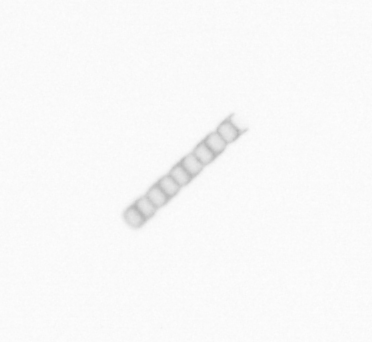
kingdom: Chromista
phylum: Ochrophyta
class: Bacillariophyceae
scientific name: Bacillariophyceae
